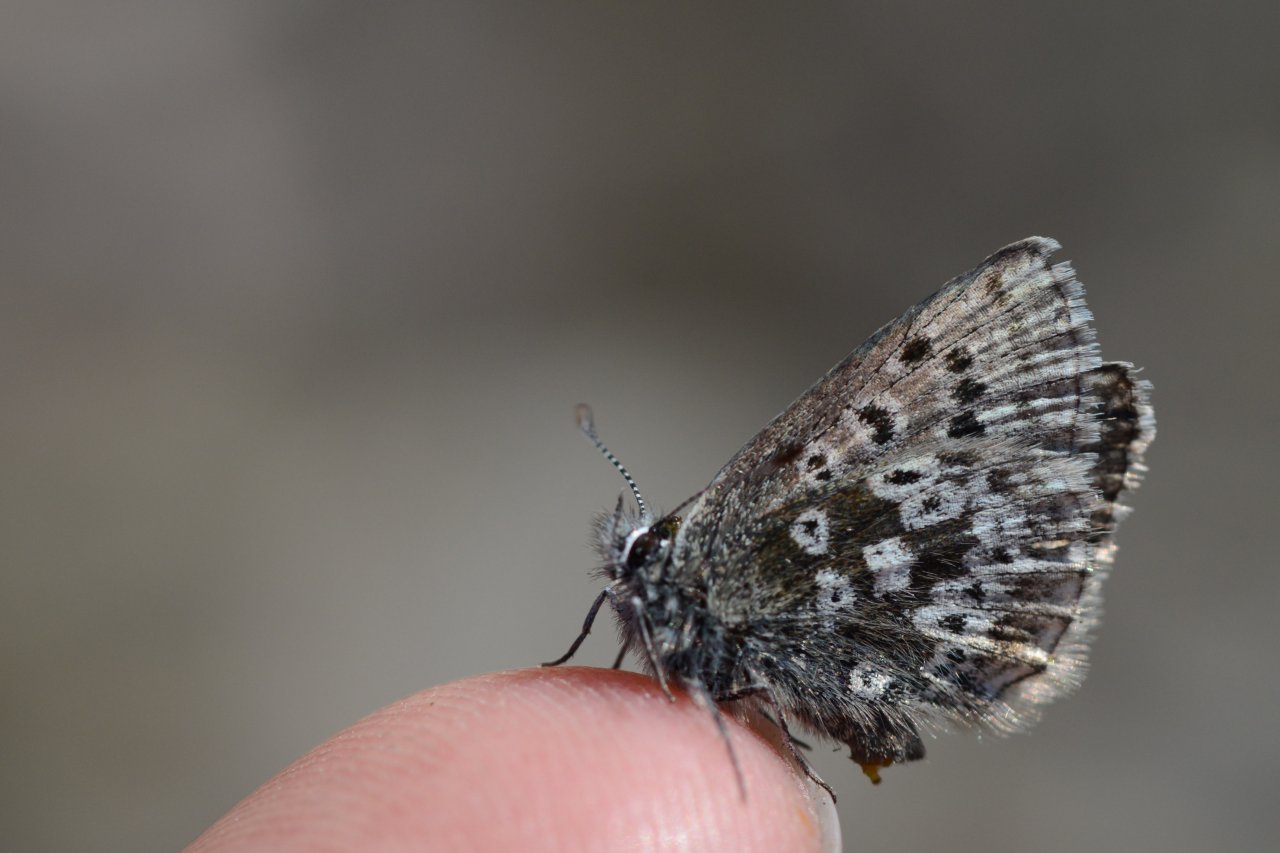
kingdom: Animalia
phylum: Arthropoda
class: Insecta
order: Lepidoptera
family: Lycaenidae
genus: Agriades
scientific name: Agriades glandon
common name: Arctic Blue
